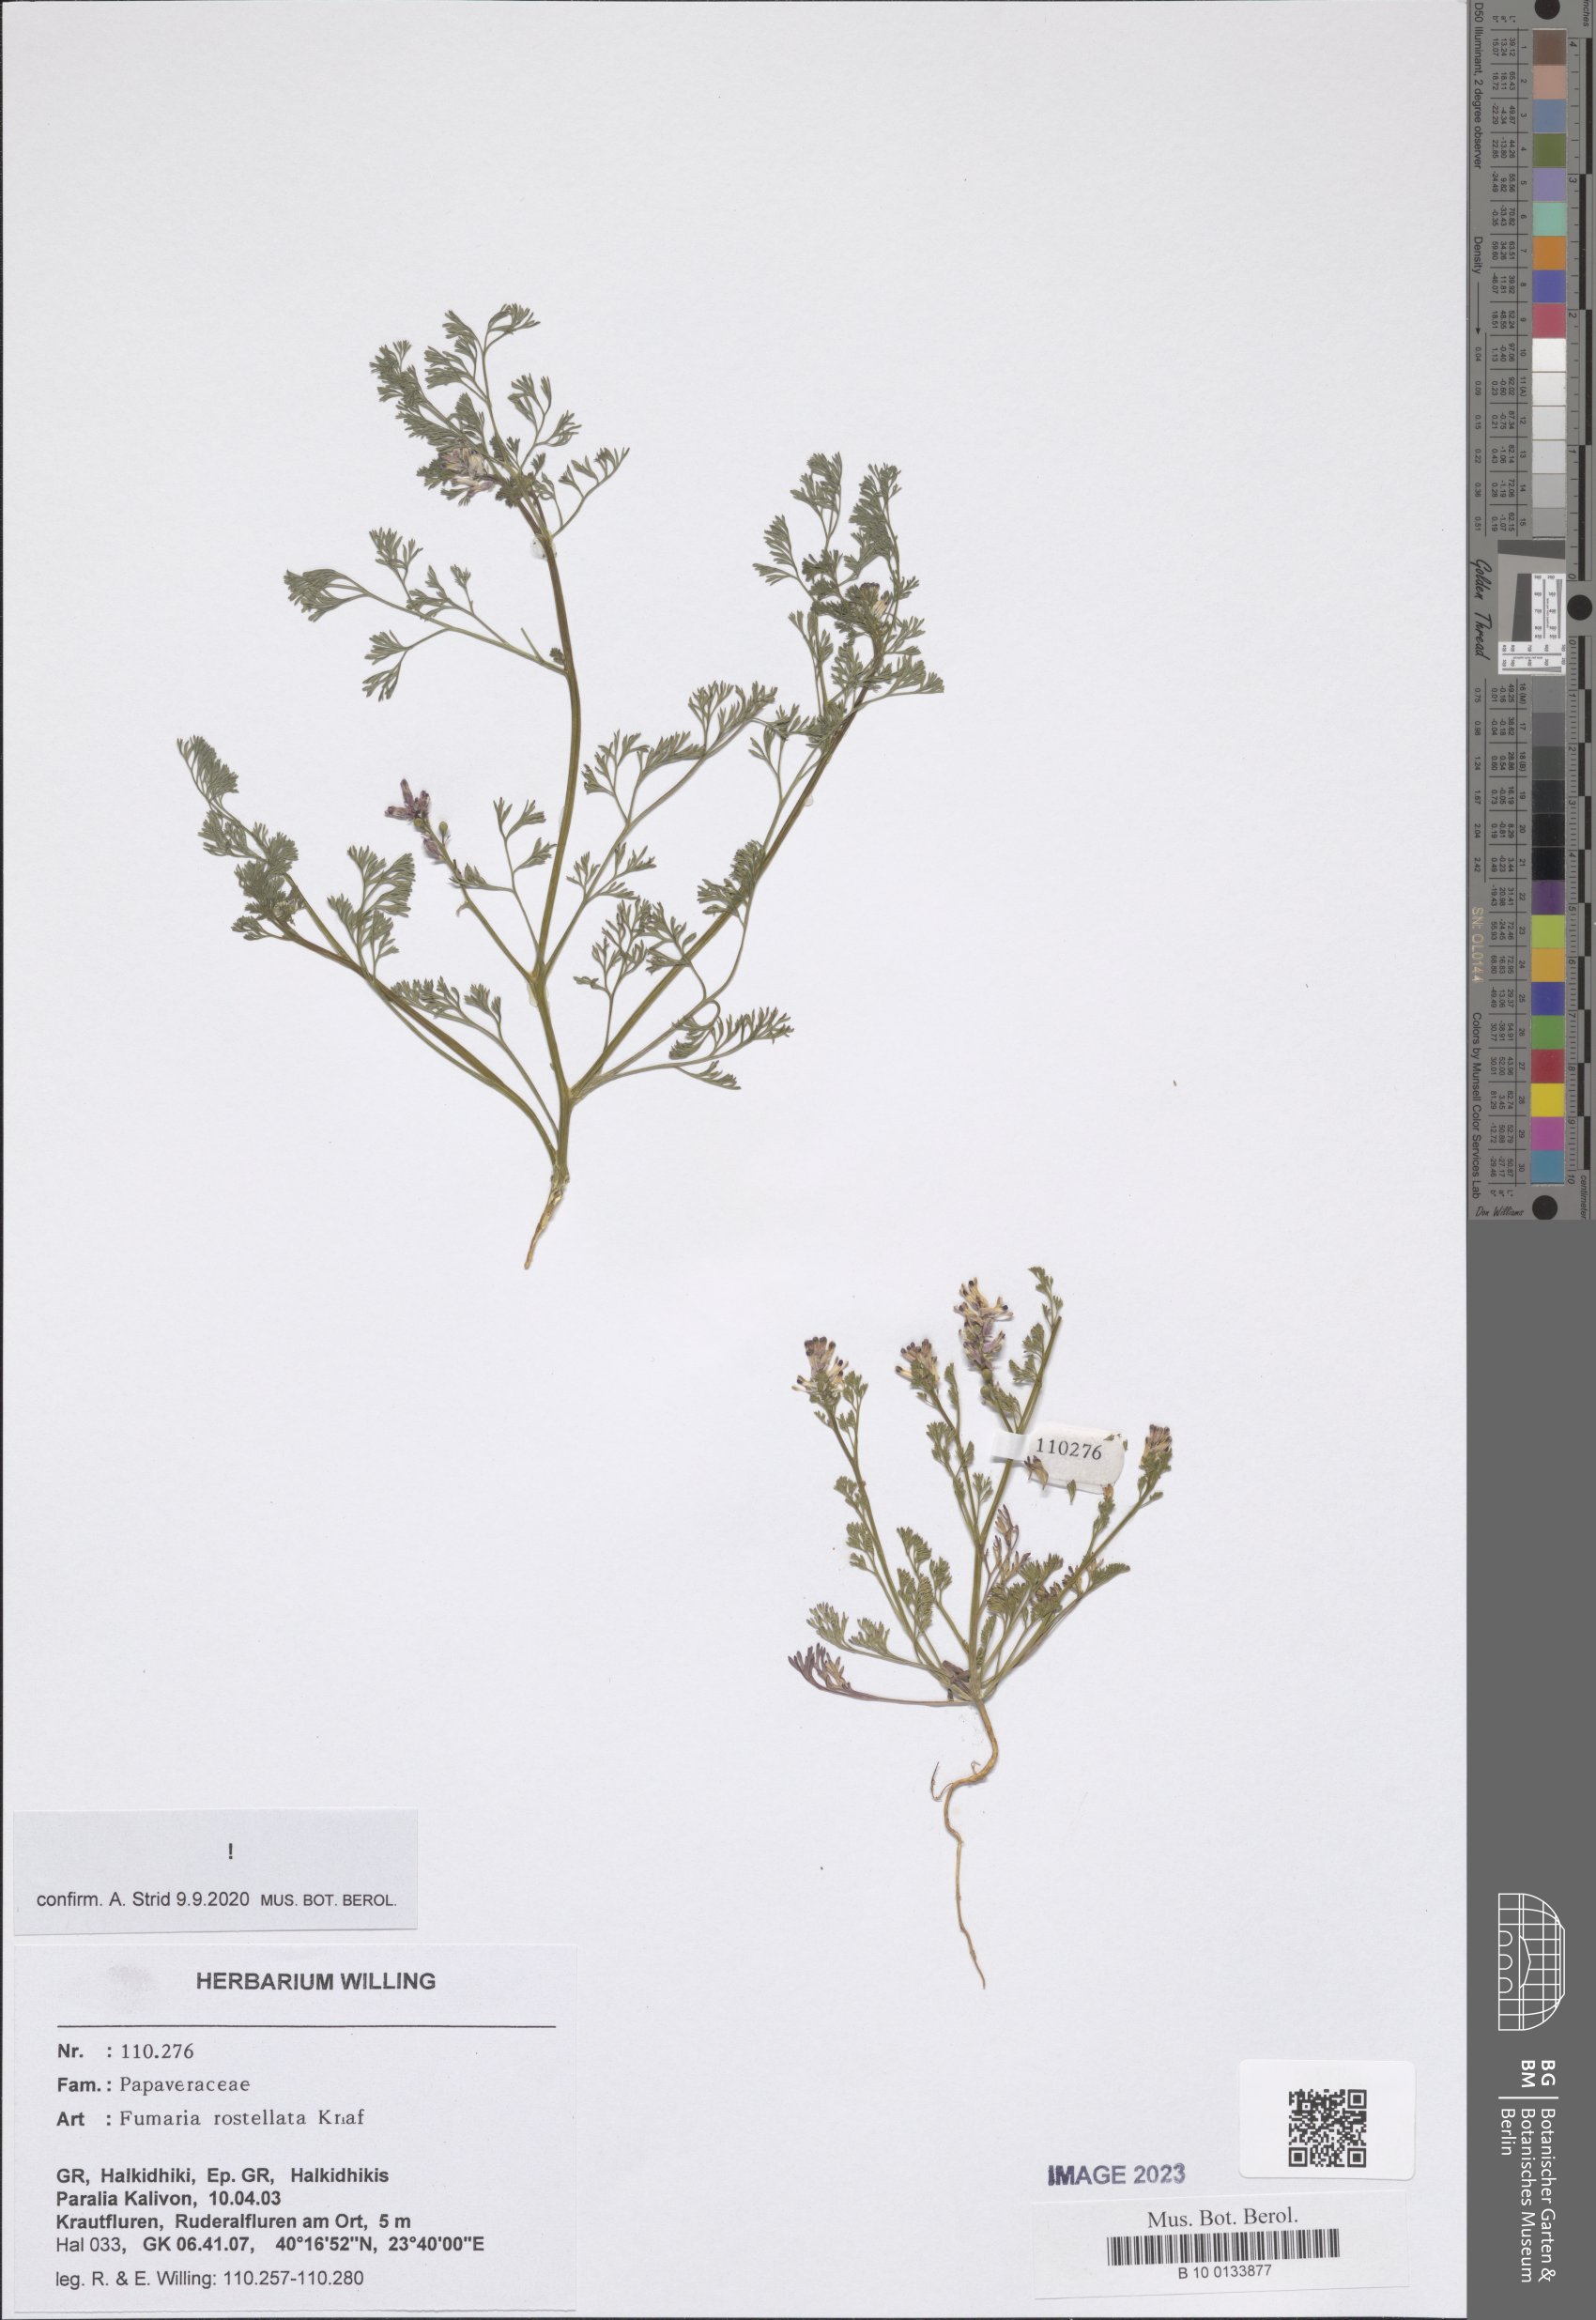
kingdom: Plantae
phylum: Tracheophyta
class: Magnoliopsida
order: Ranunculales
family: Papaveraceae
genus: Fumaria
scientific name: Fumaria rostellata
